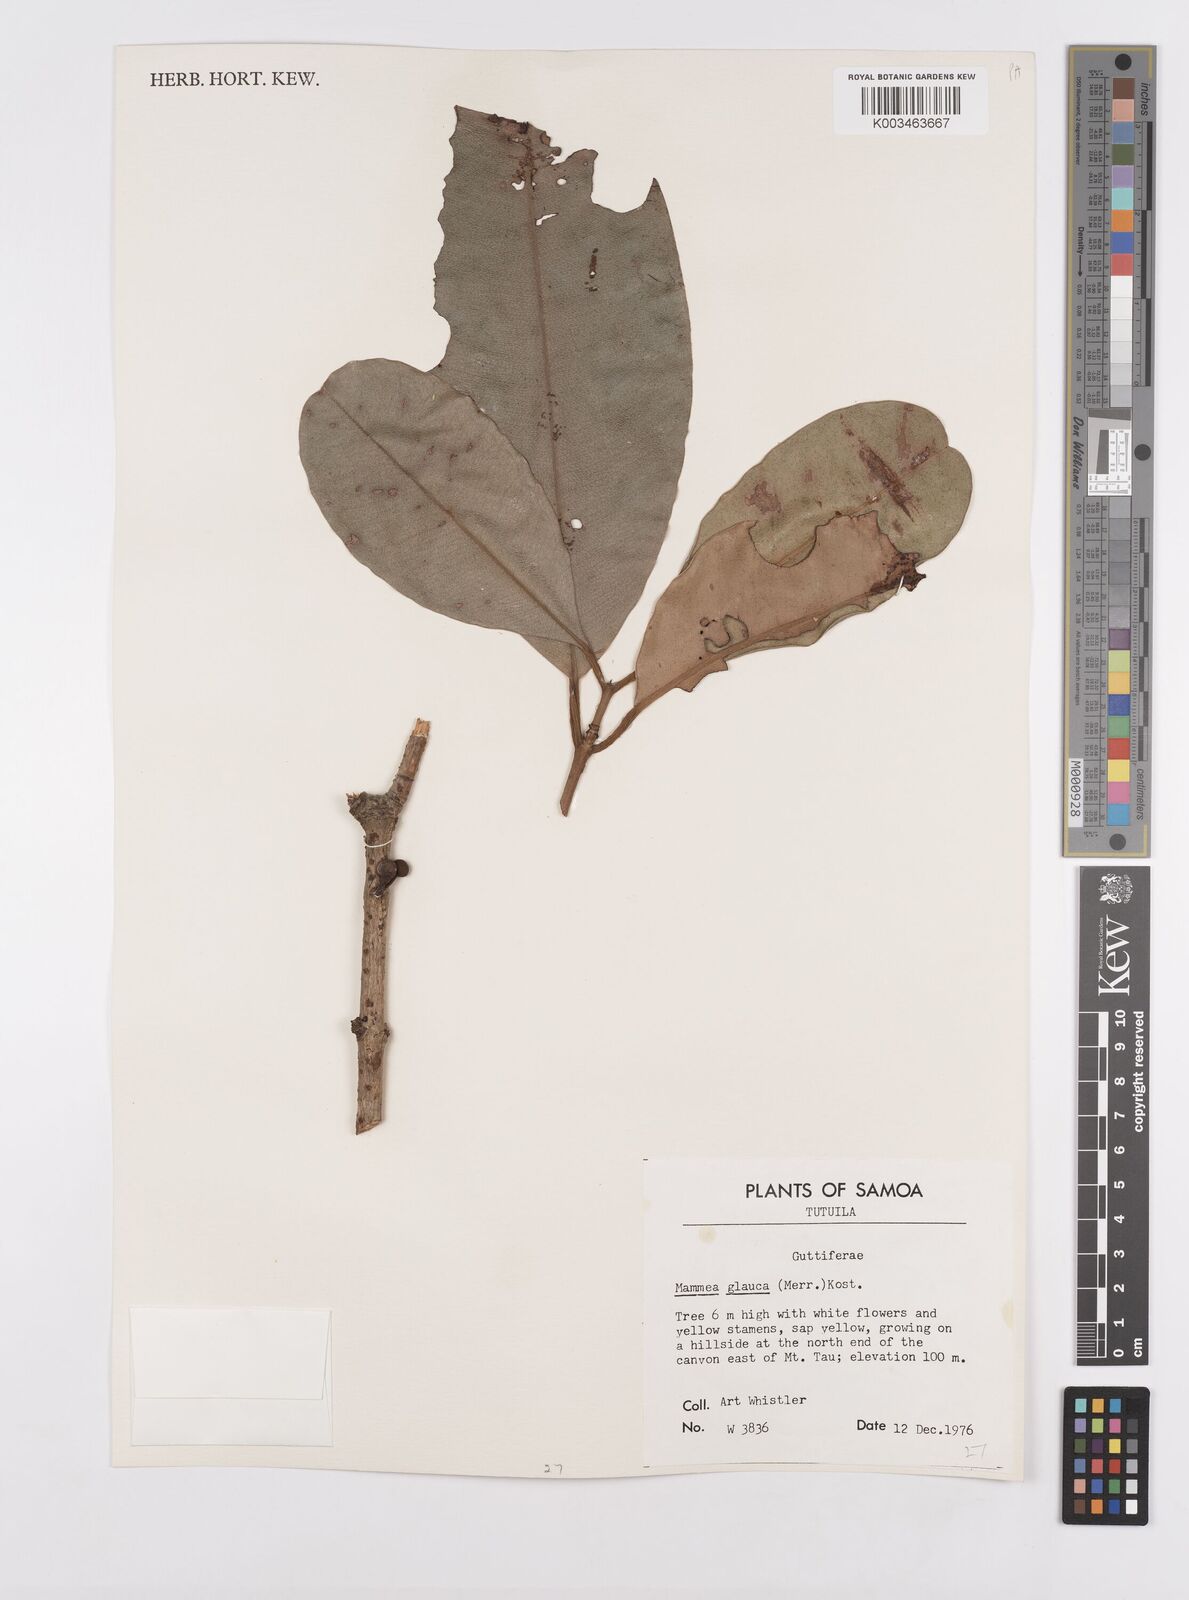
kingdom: Plantae
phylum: Tracheophyta
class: Magnoliopsida
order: Malpighiales
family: Calophyllaceae
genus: Mammea
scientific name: Mammea glauca
